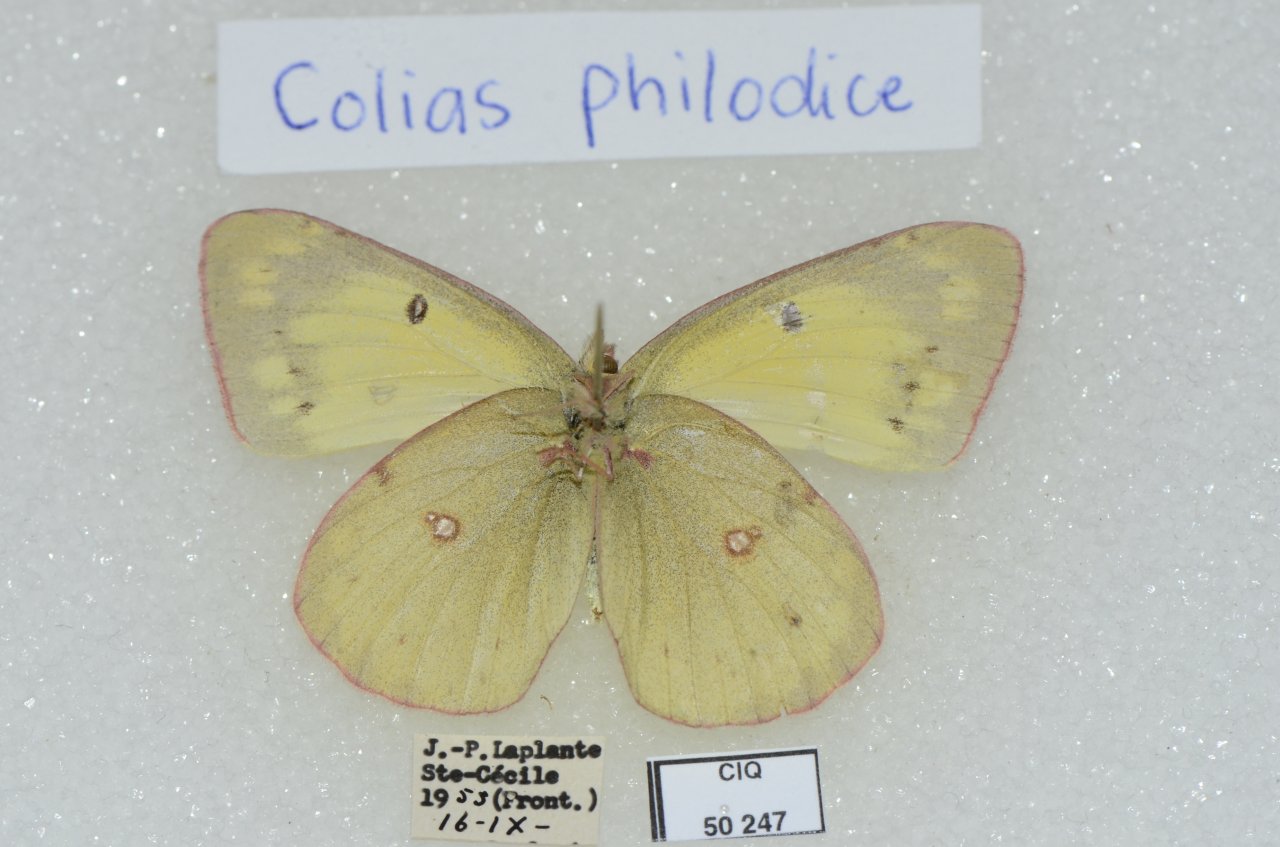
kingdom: Animalia
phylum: Arthropoda
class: Insecta
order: Lepidoptera
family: Pieridae
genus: Colias
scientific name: Colias philodice
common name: Clouded Sulphur
